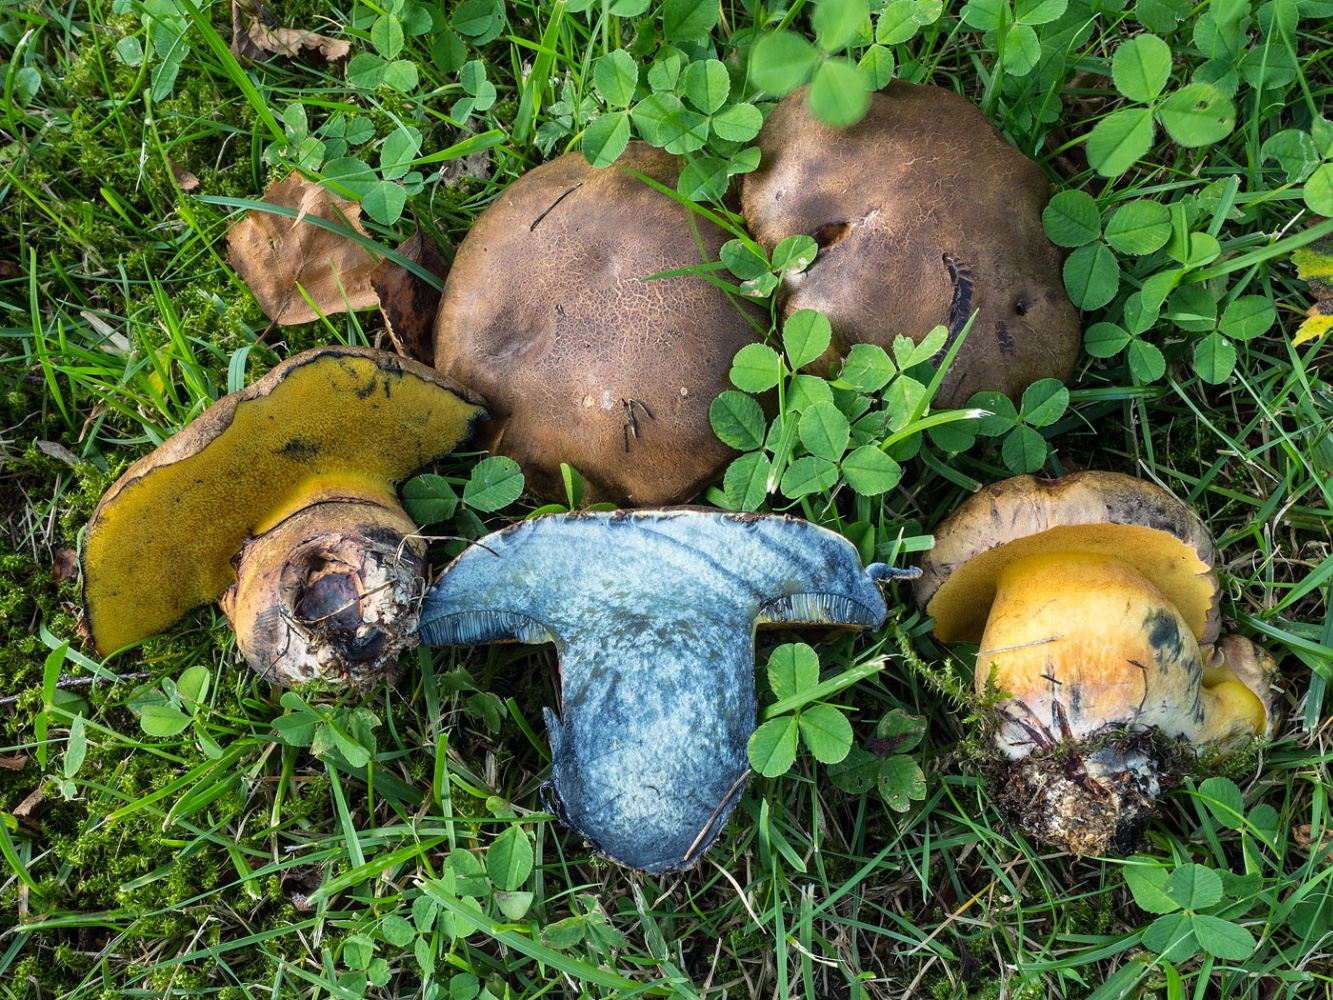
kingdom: Fungi
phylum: Basidiomycota
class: Agaricomycetes
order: Boletales
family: Boletaceae
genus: Cyanoboletus
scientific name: Cyanoboletus pulverulentus
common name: sortblånende rørhat
